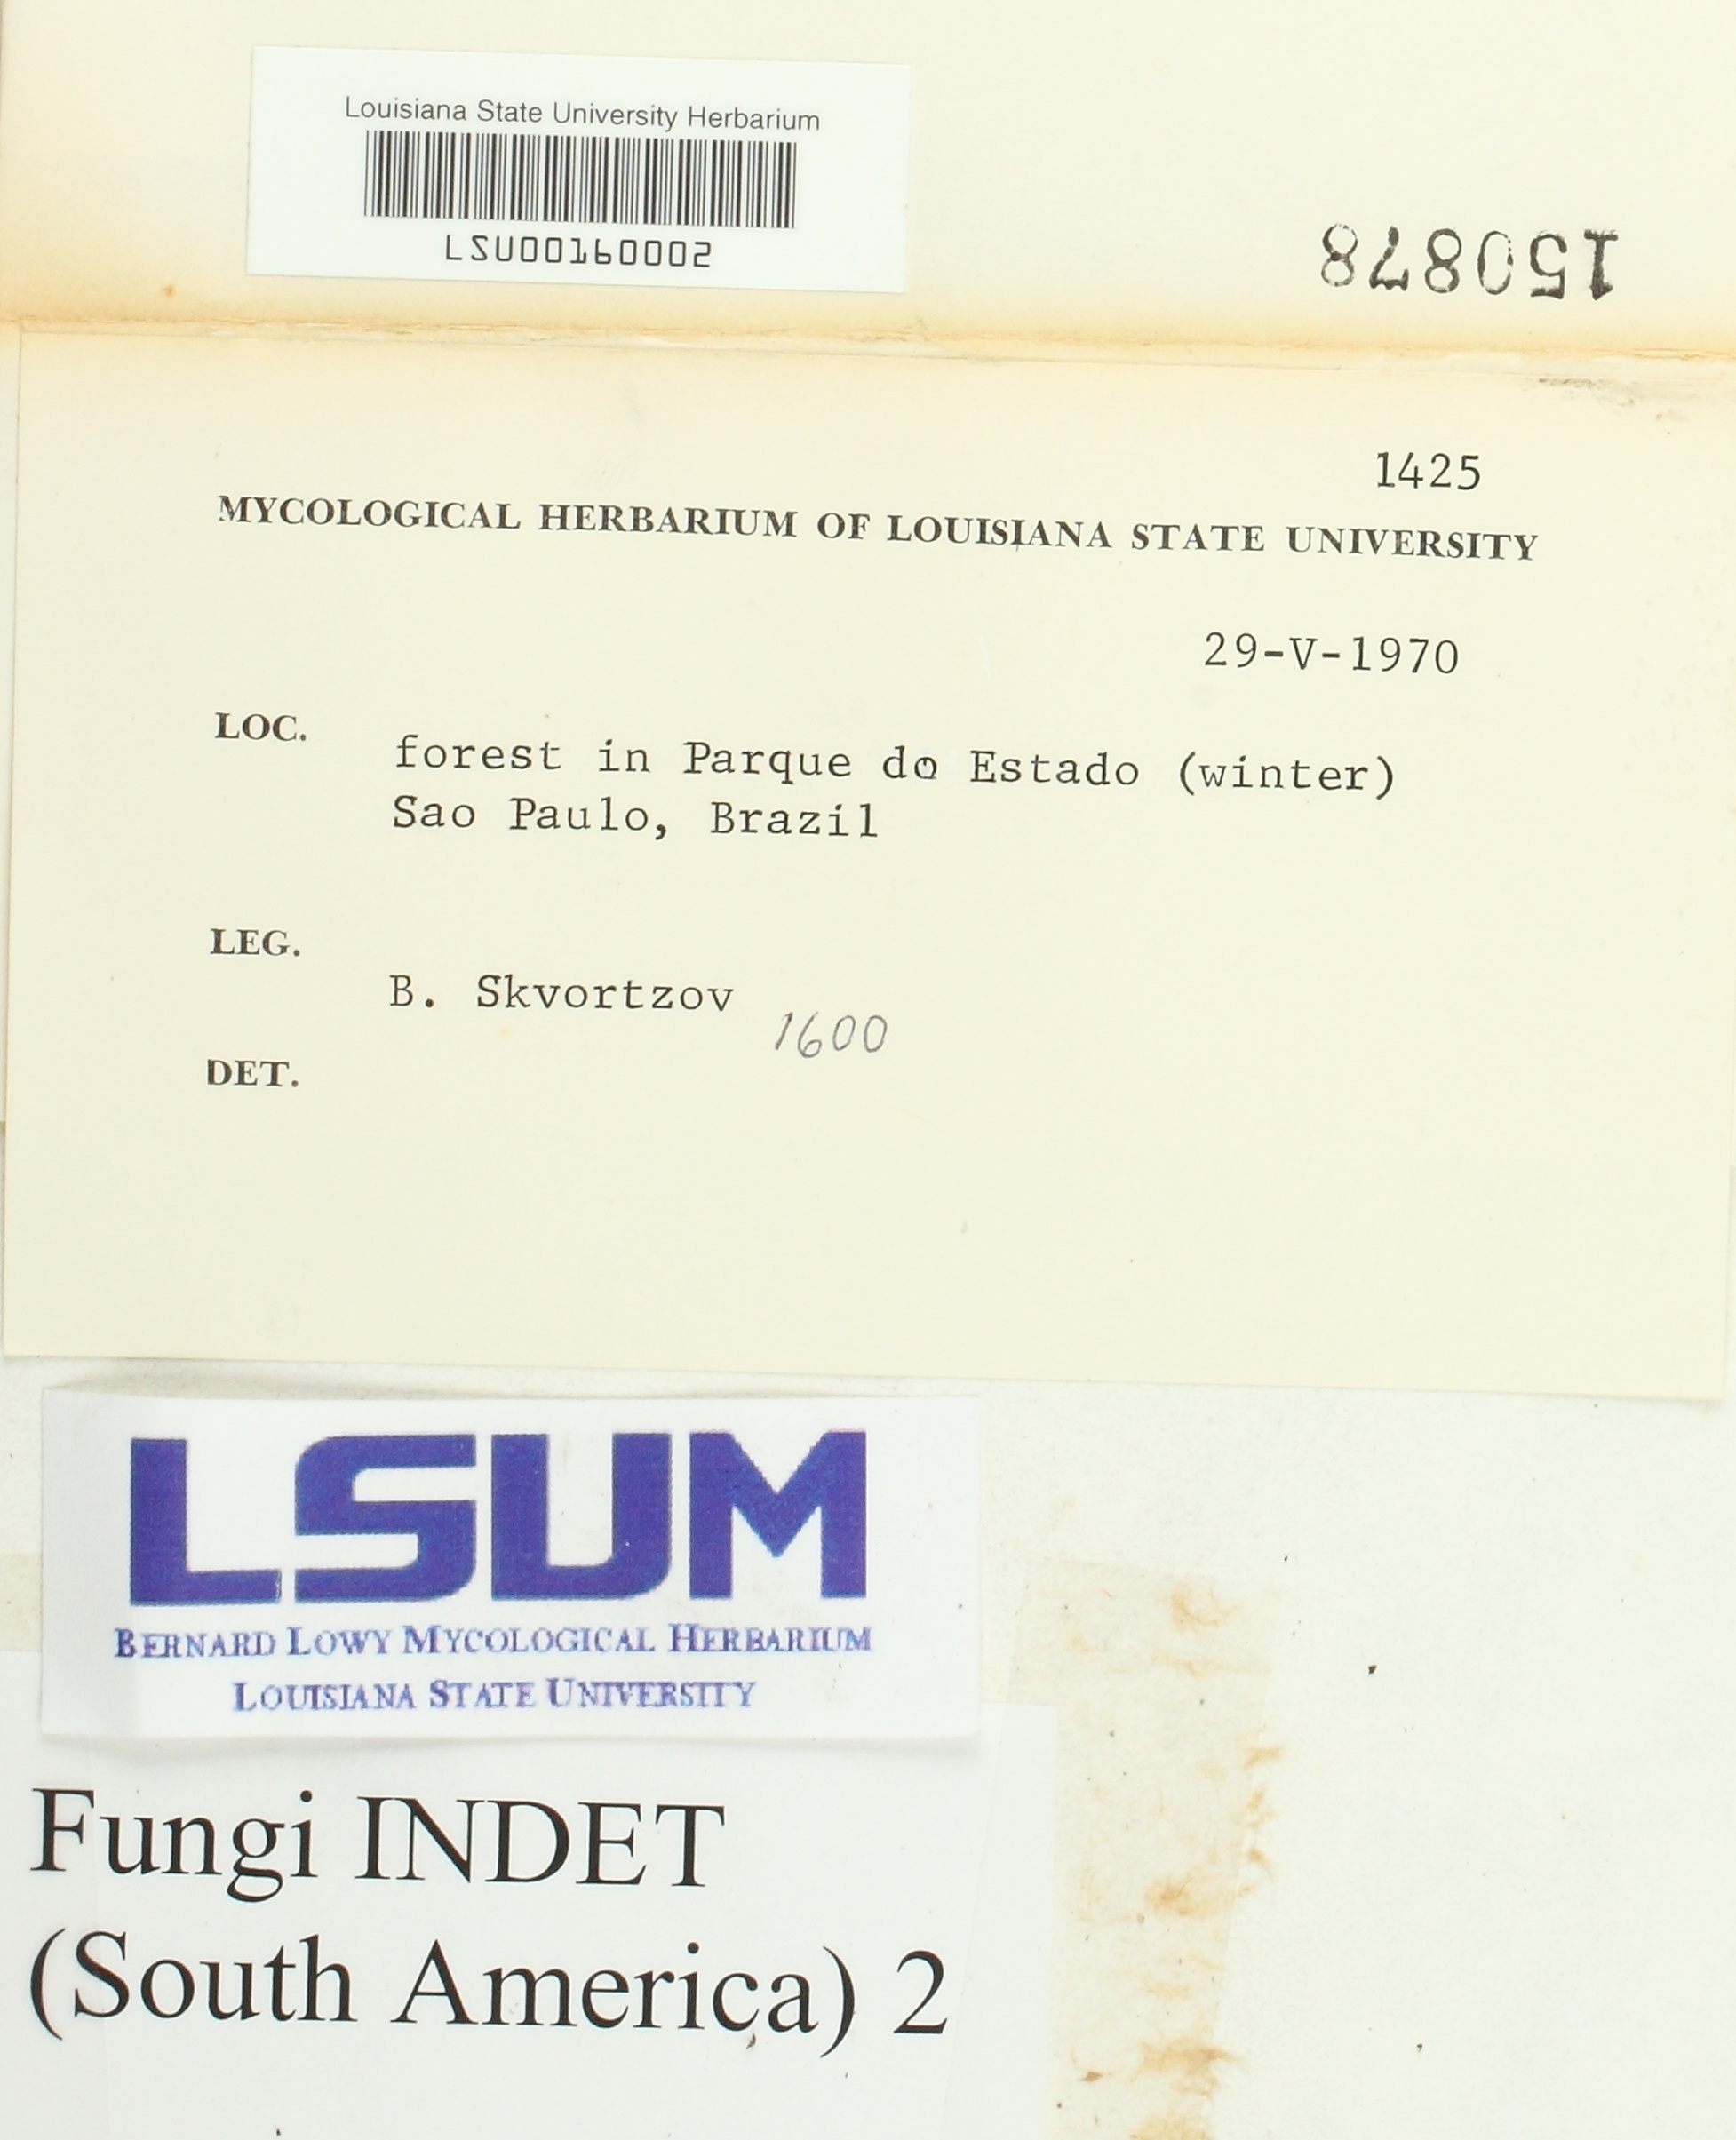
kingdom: Fungi
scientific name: Fungi
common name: Fungi
